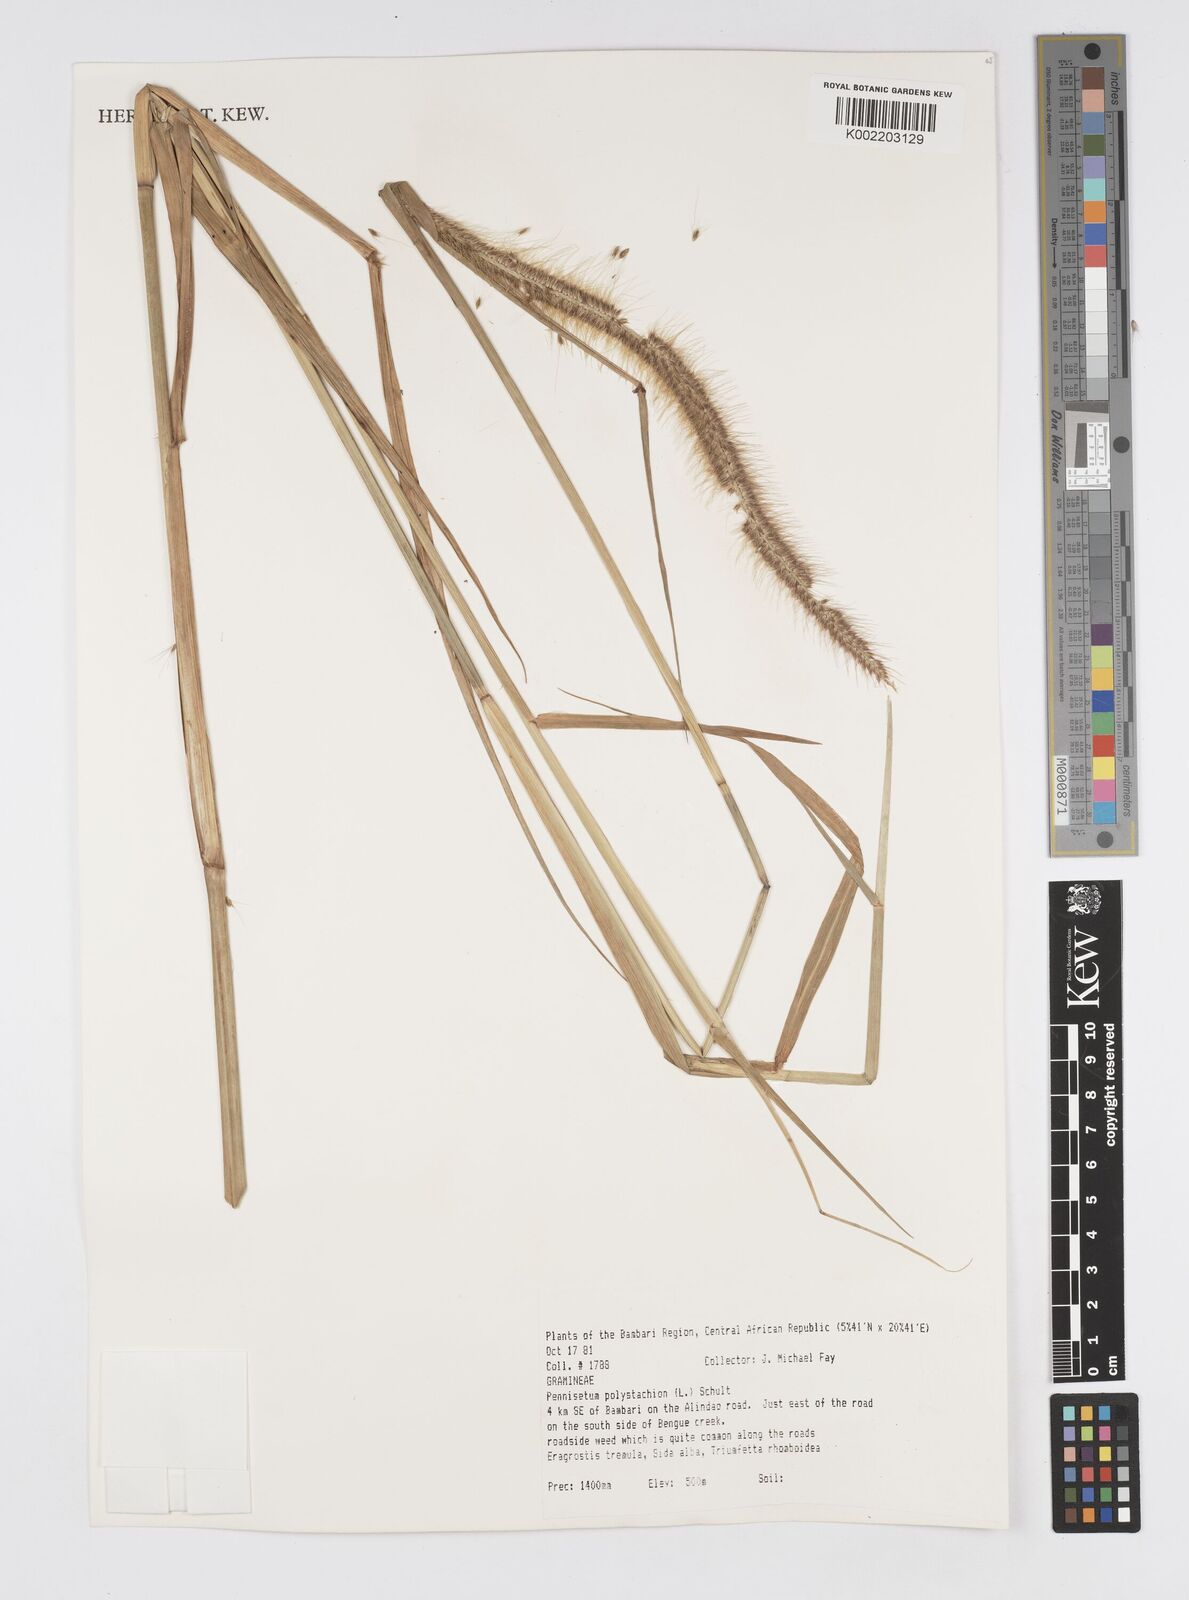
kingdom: Plantae
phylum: Tracheophyta
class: Liliopsida
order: Poales
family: Poaceae
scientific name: Poaceae
